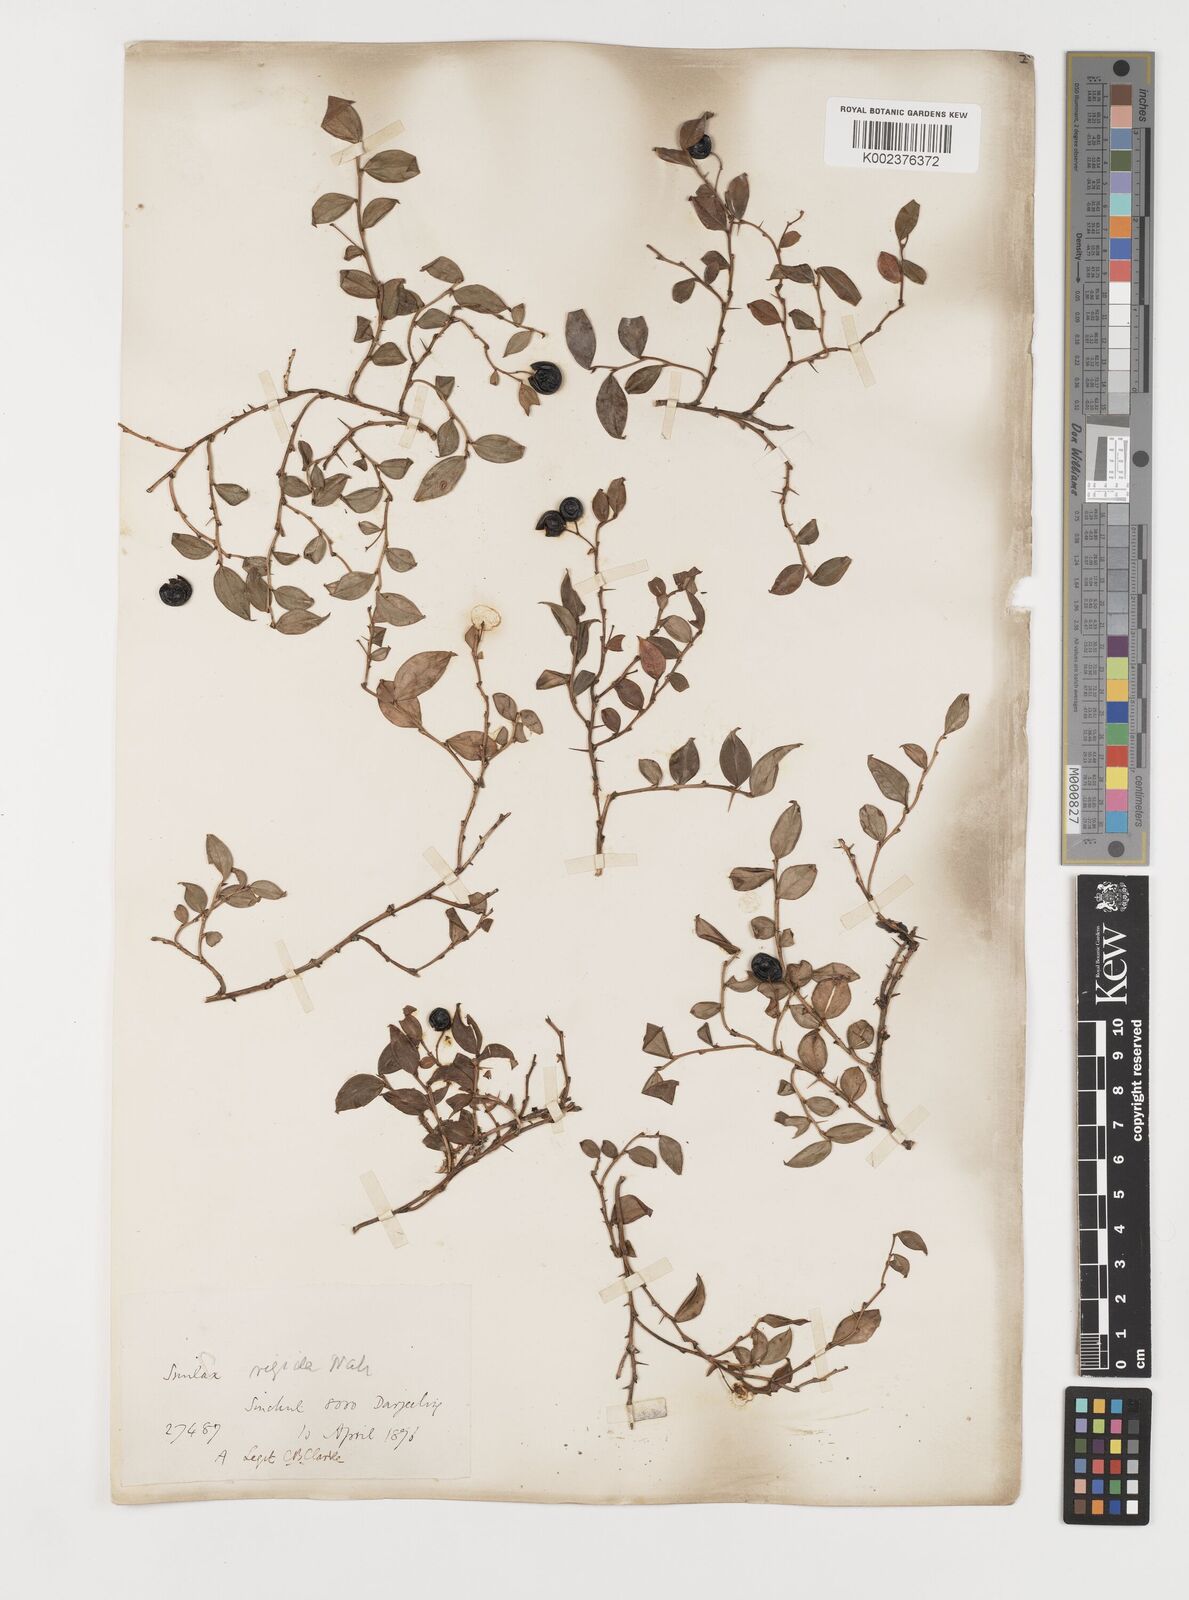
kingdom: Plantae
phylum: Tracheophyta
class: Liliopsida
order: Liliales
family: Smilacaceae
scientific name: Smilacaceae
